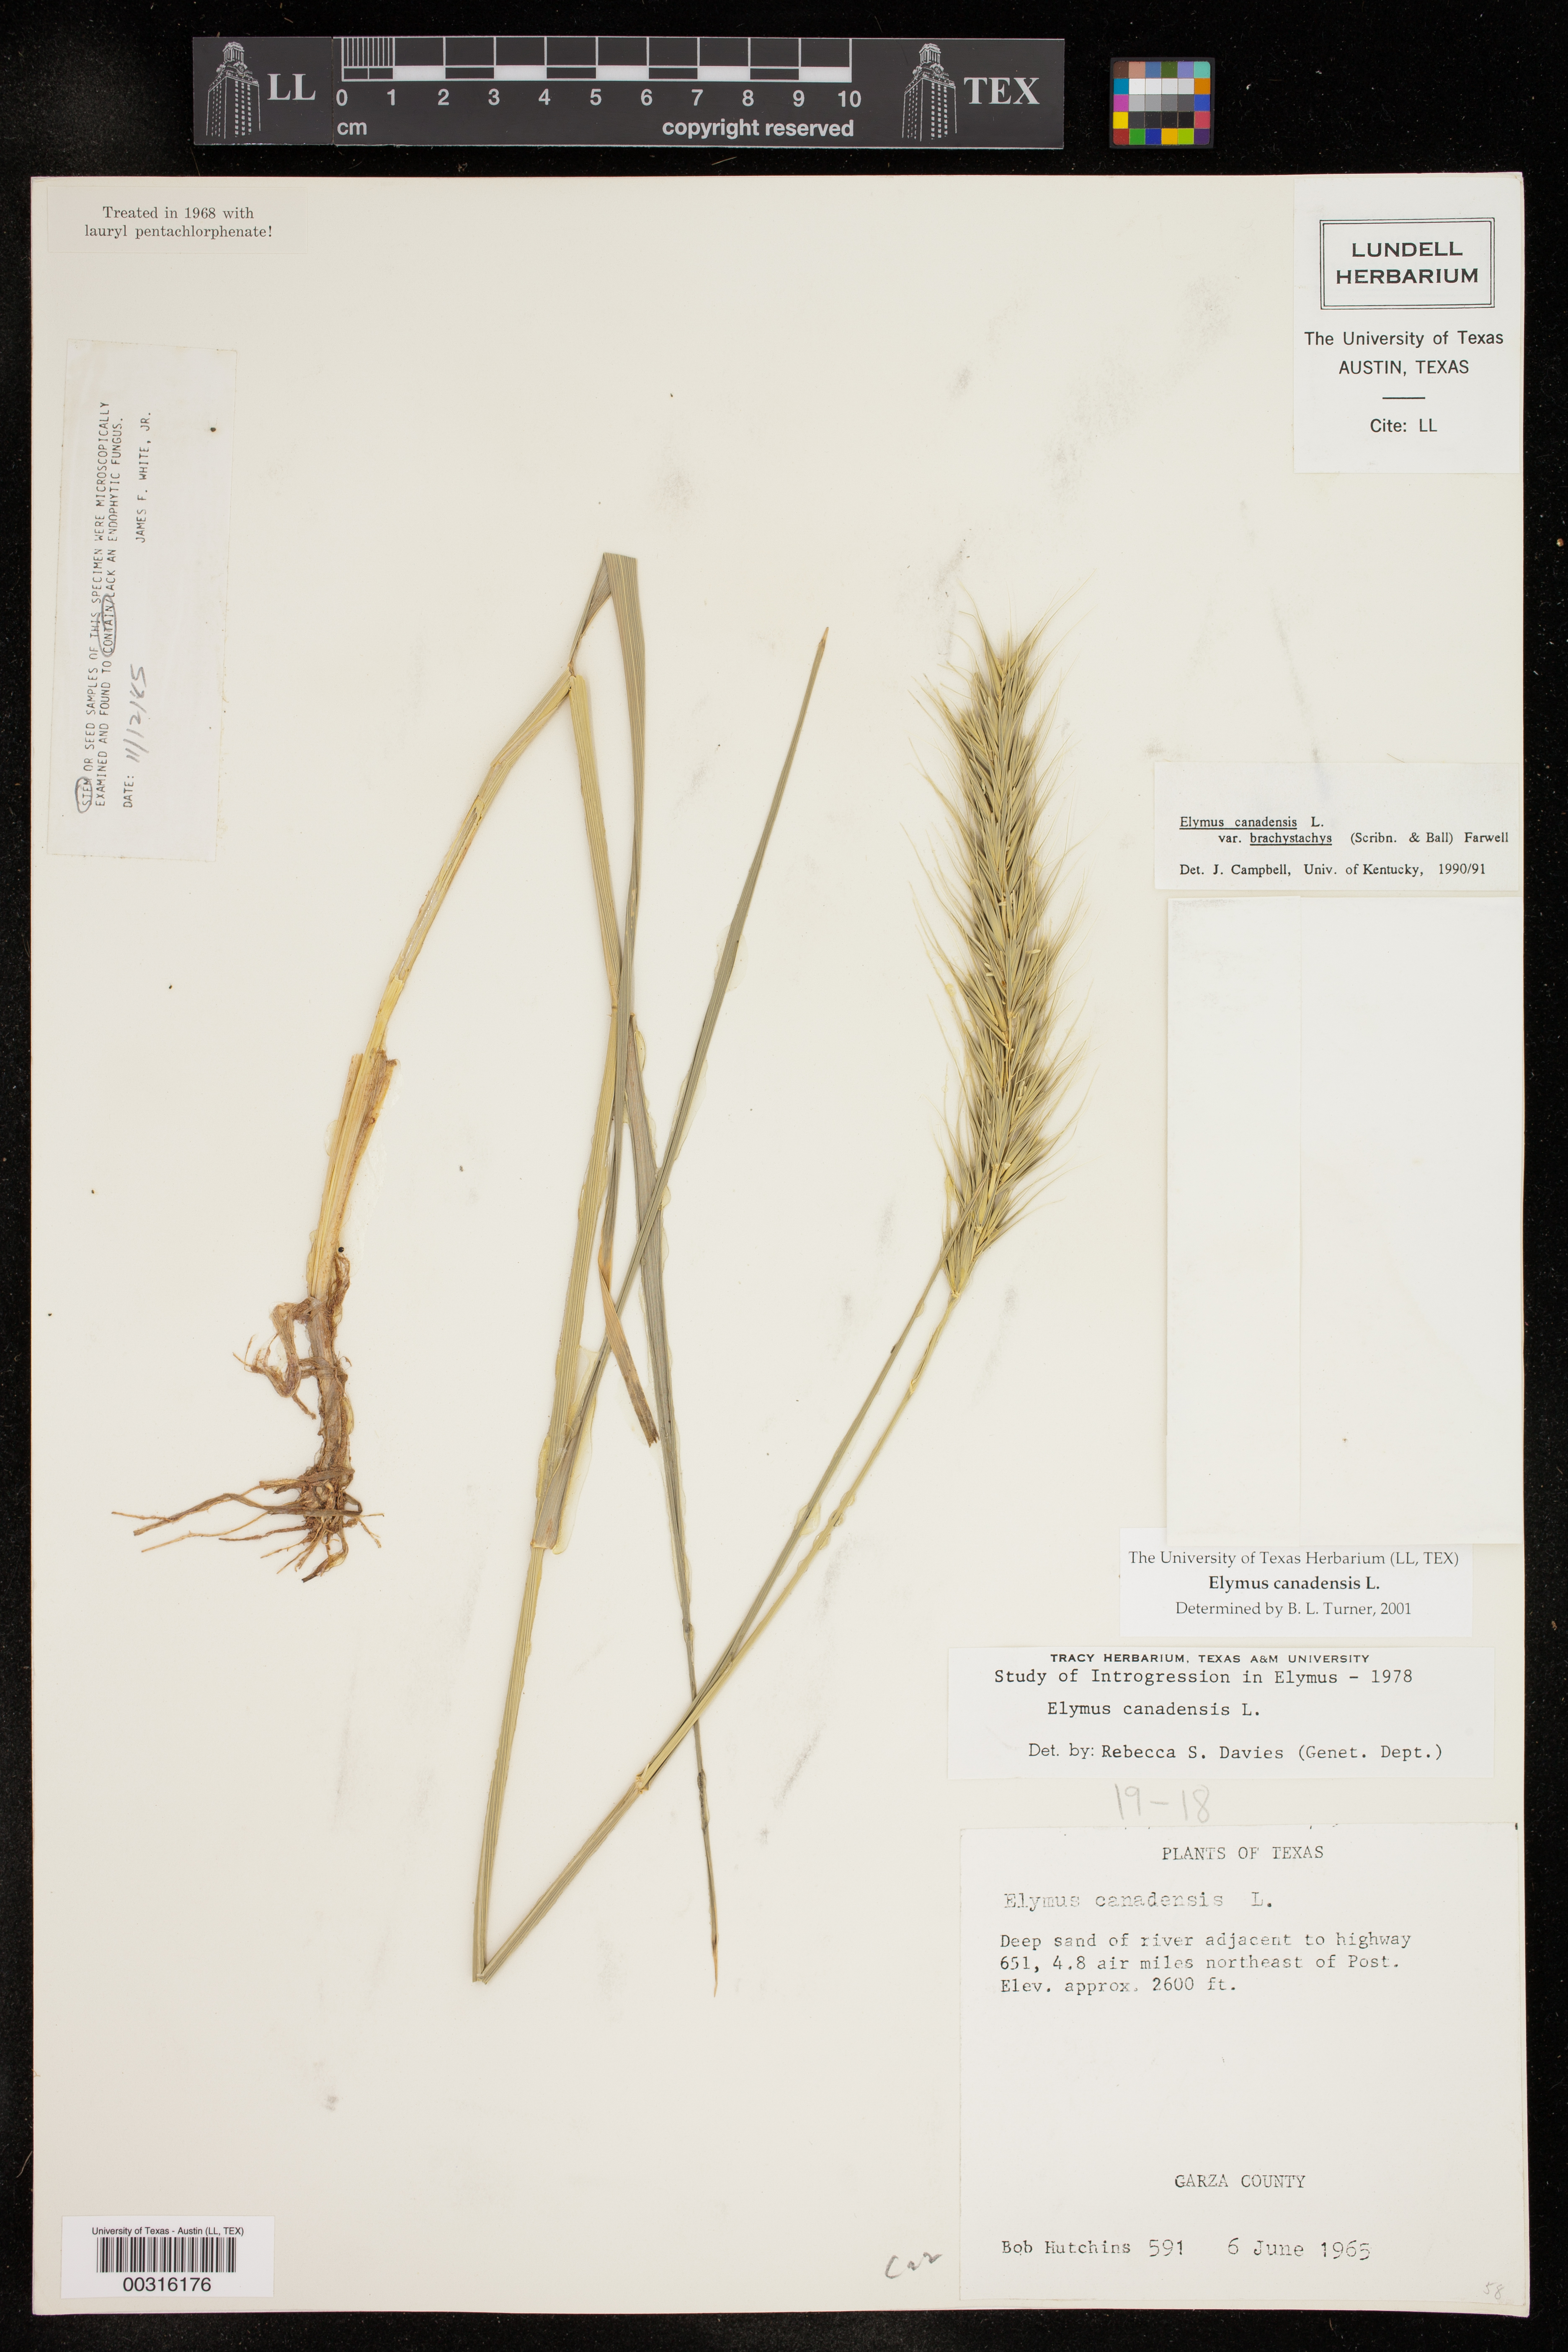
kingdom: Plantae
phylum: Tracheophyta
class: Liliopsida
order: Poales
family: Poaceae
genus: Elymus
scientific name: Elymus canadensis
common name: Canada wild rye
